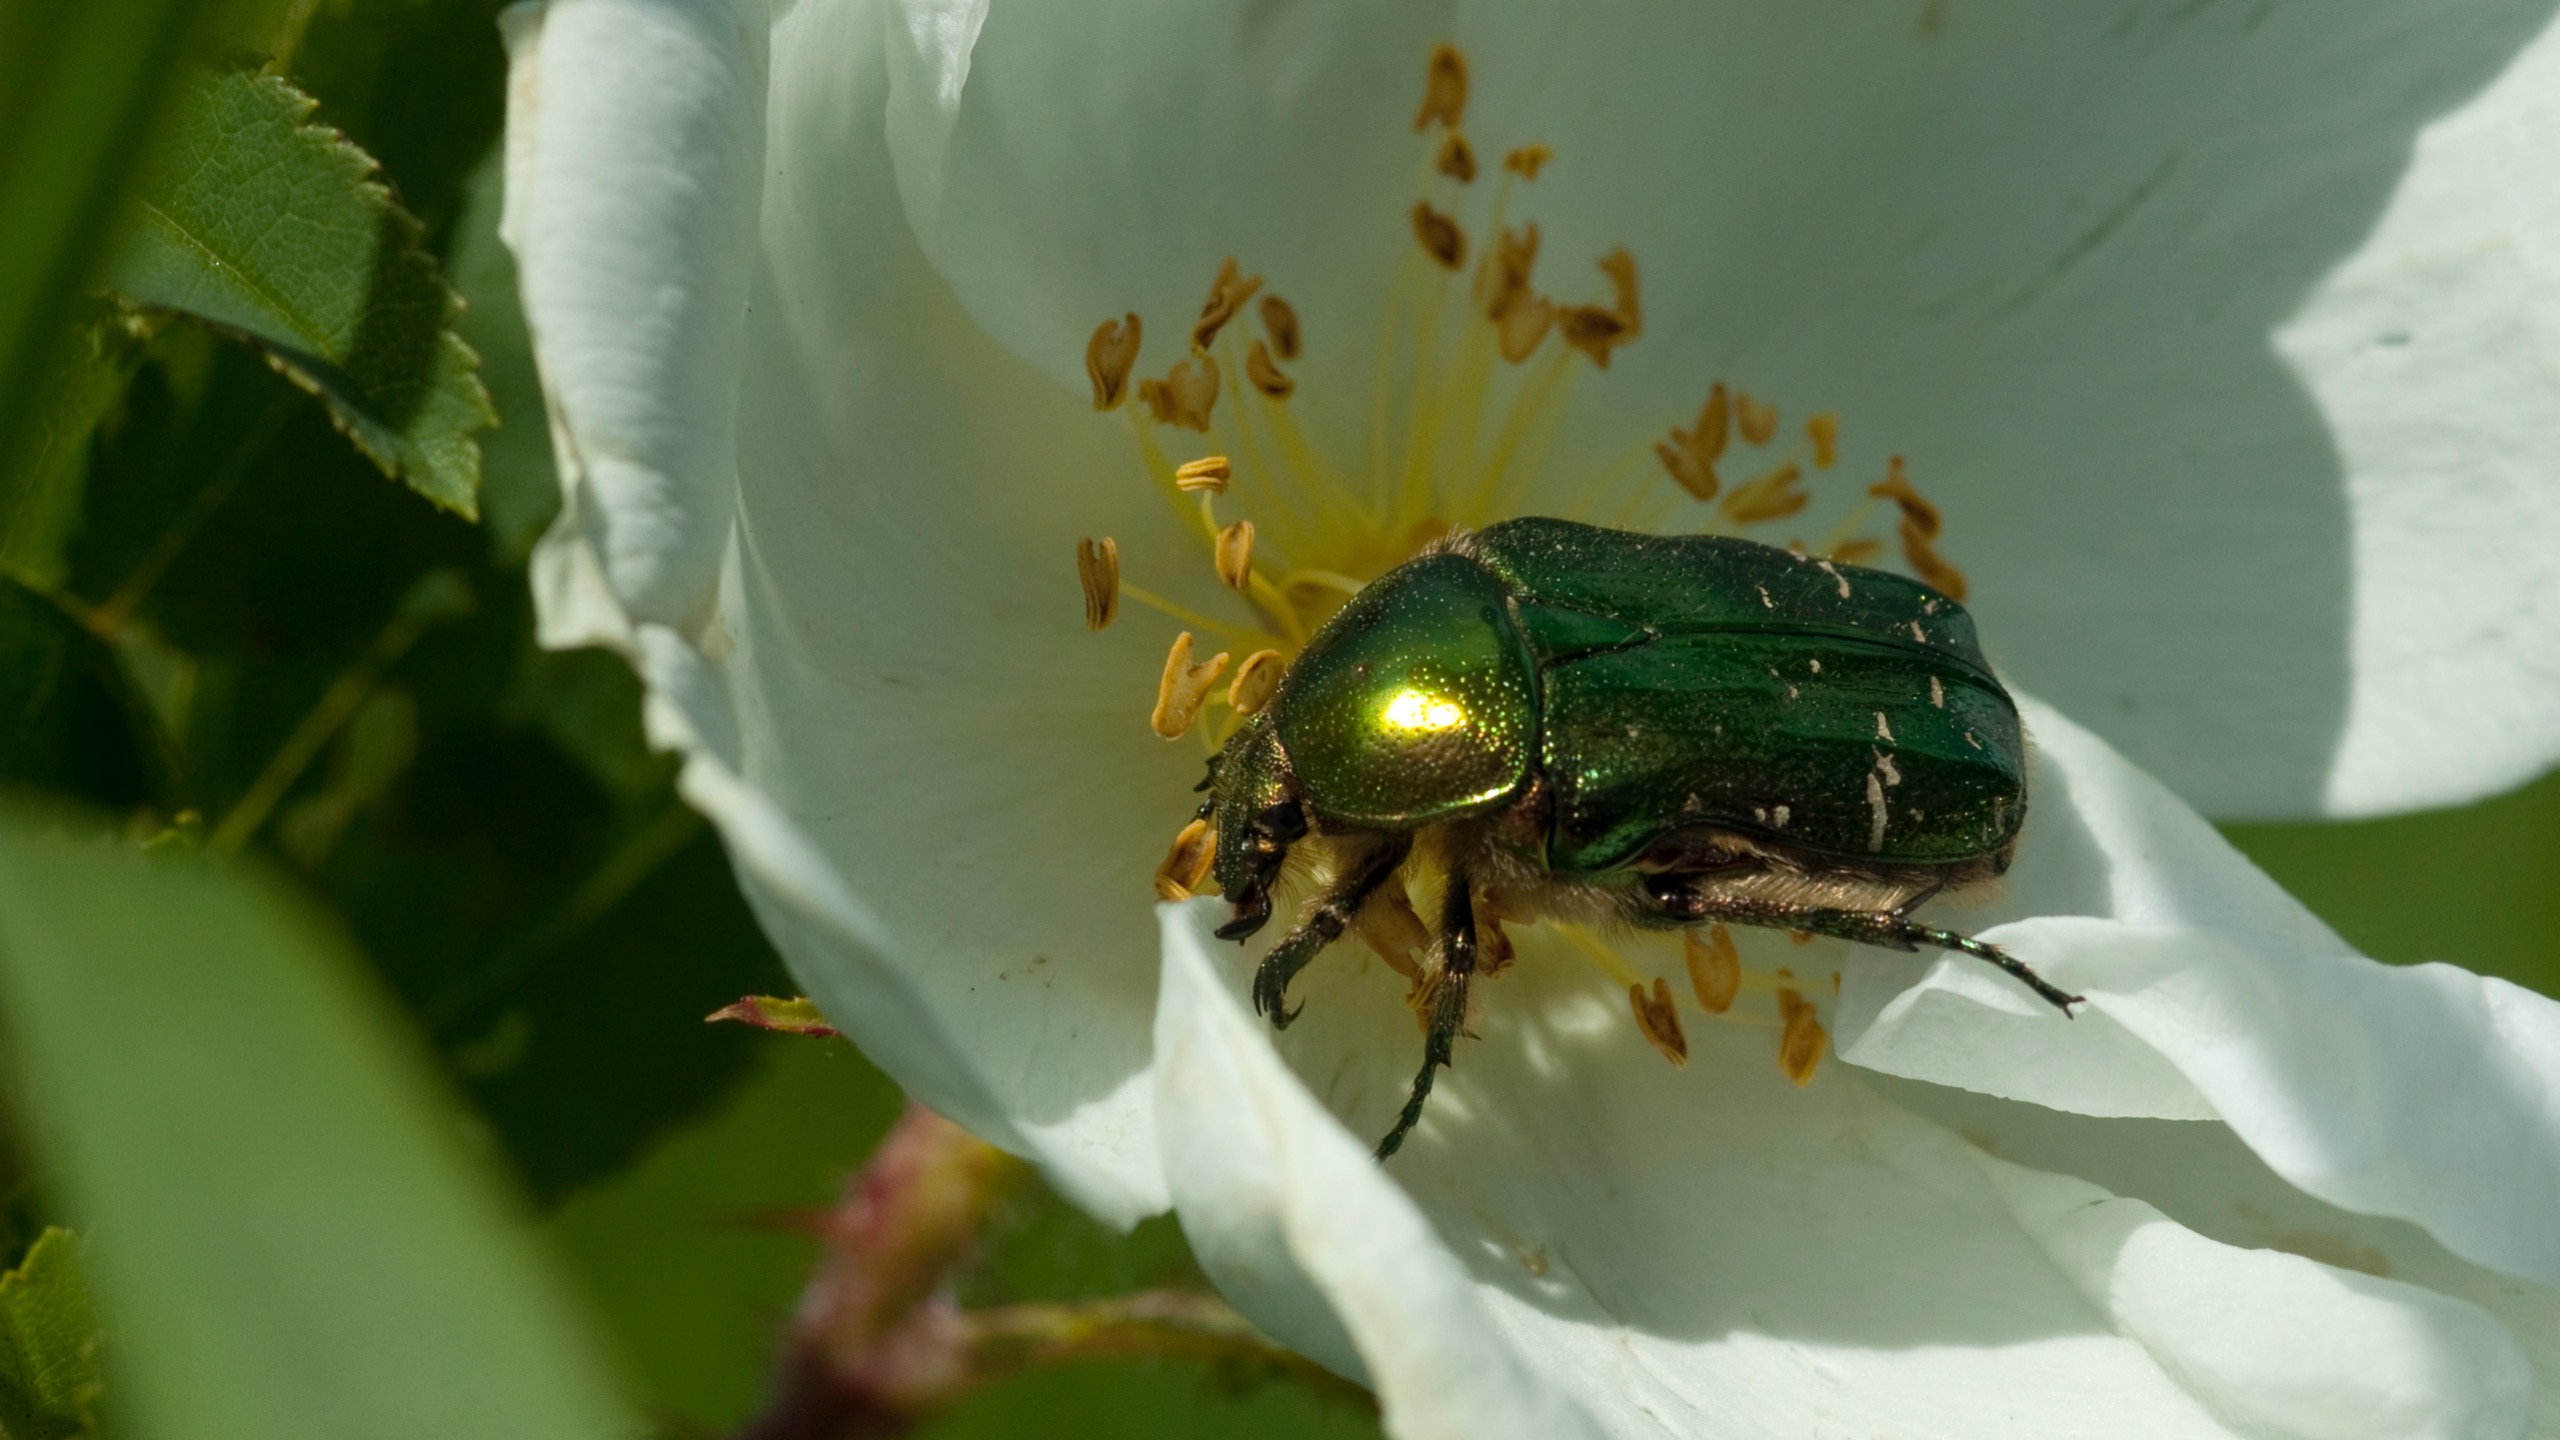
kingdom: Animalia
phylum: Arthropoda
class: Insecta
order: Coleoptera
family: Scarabaeidae
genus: Cetonia
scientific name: Cetonia aurata
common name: Grøn guldbasse
